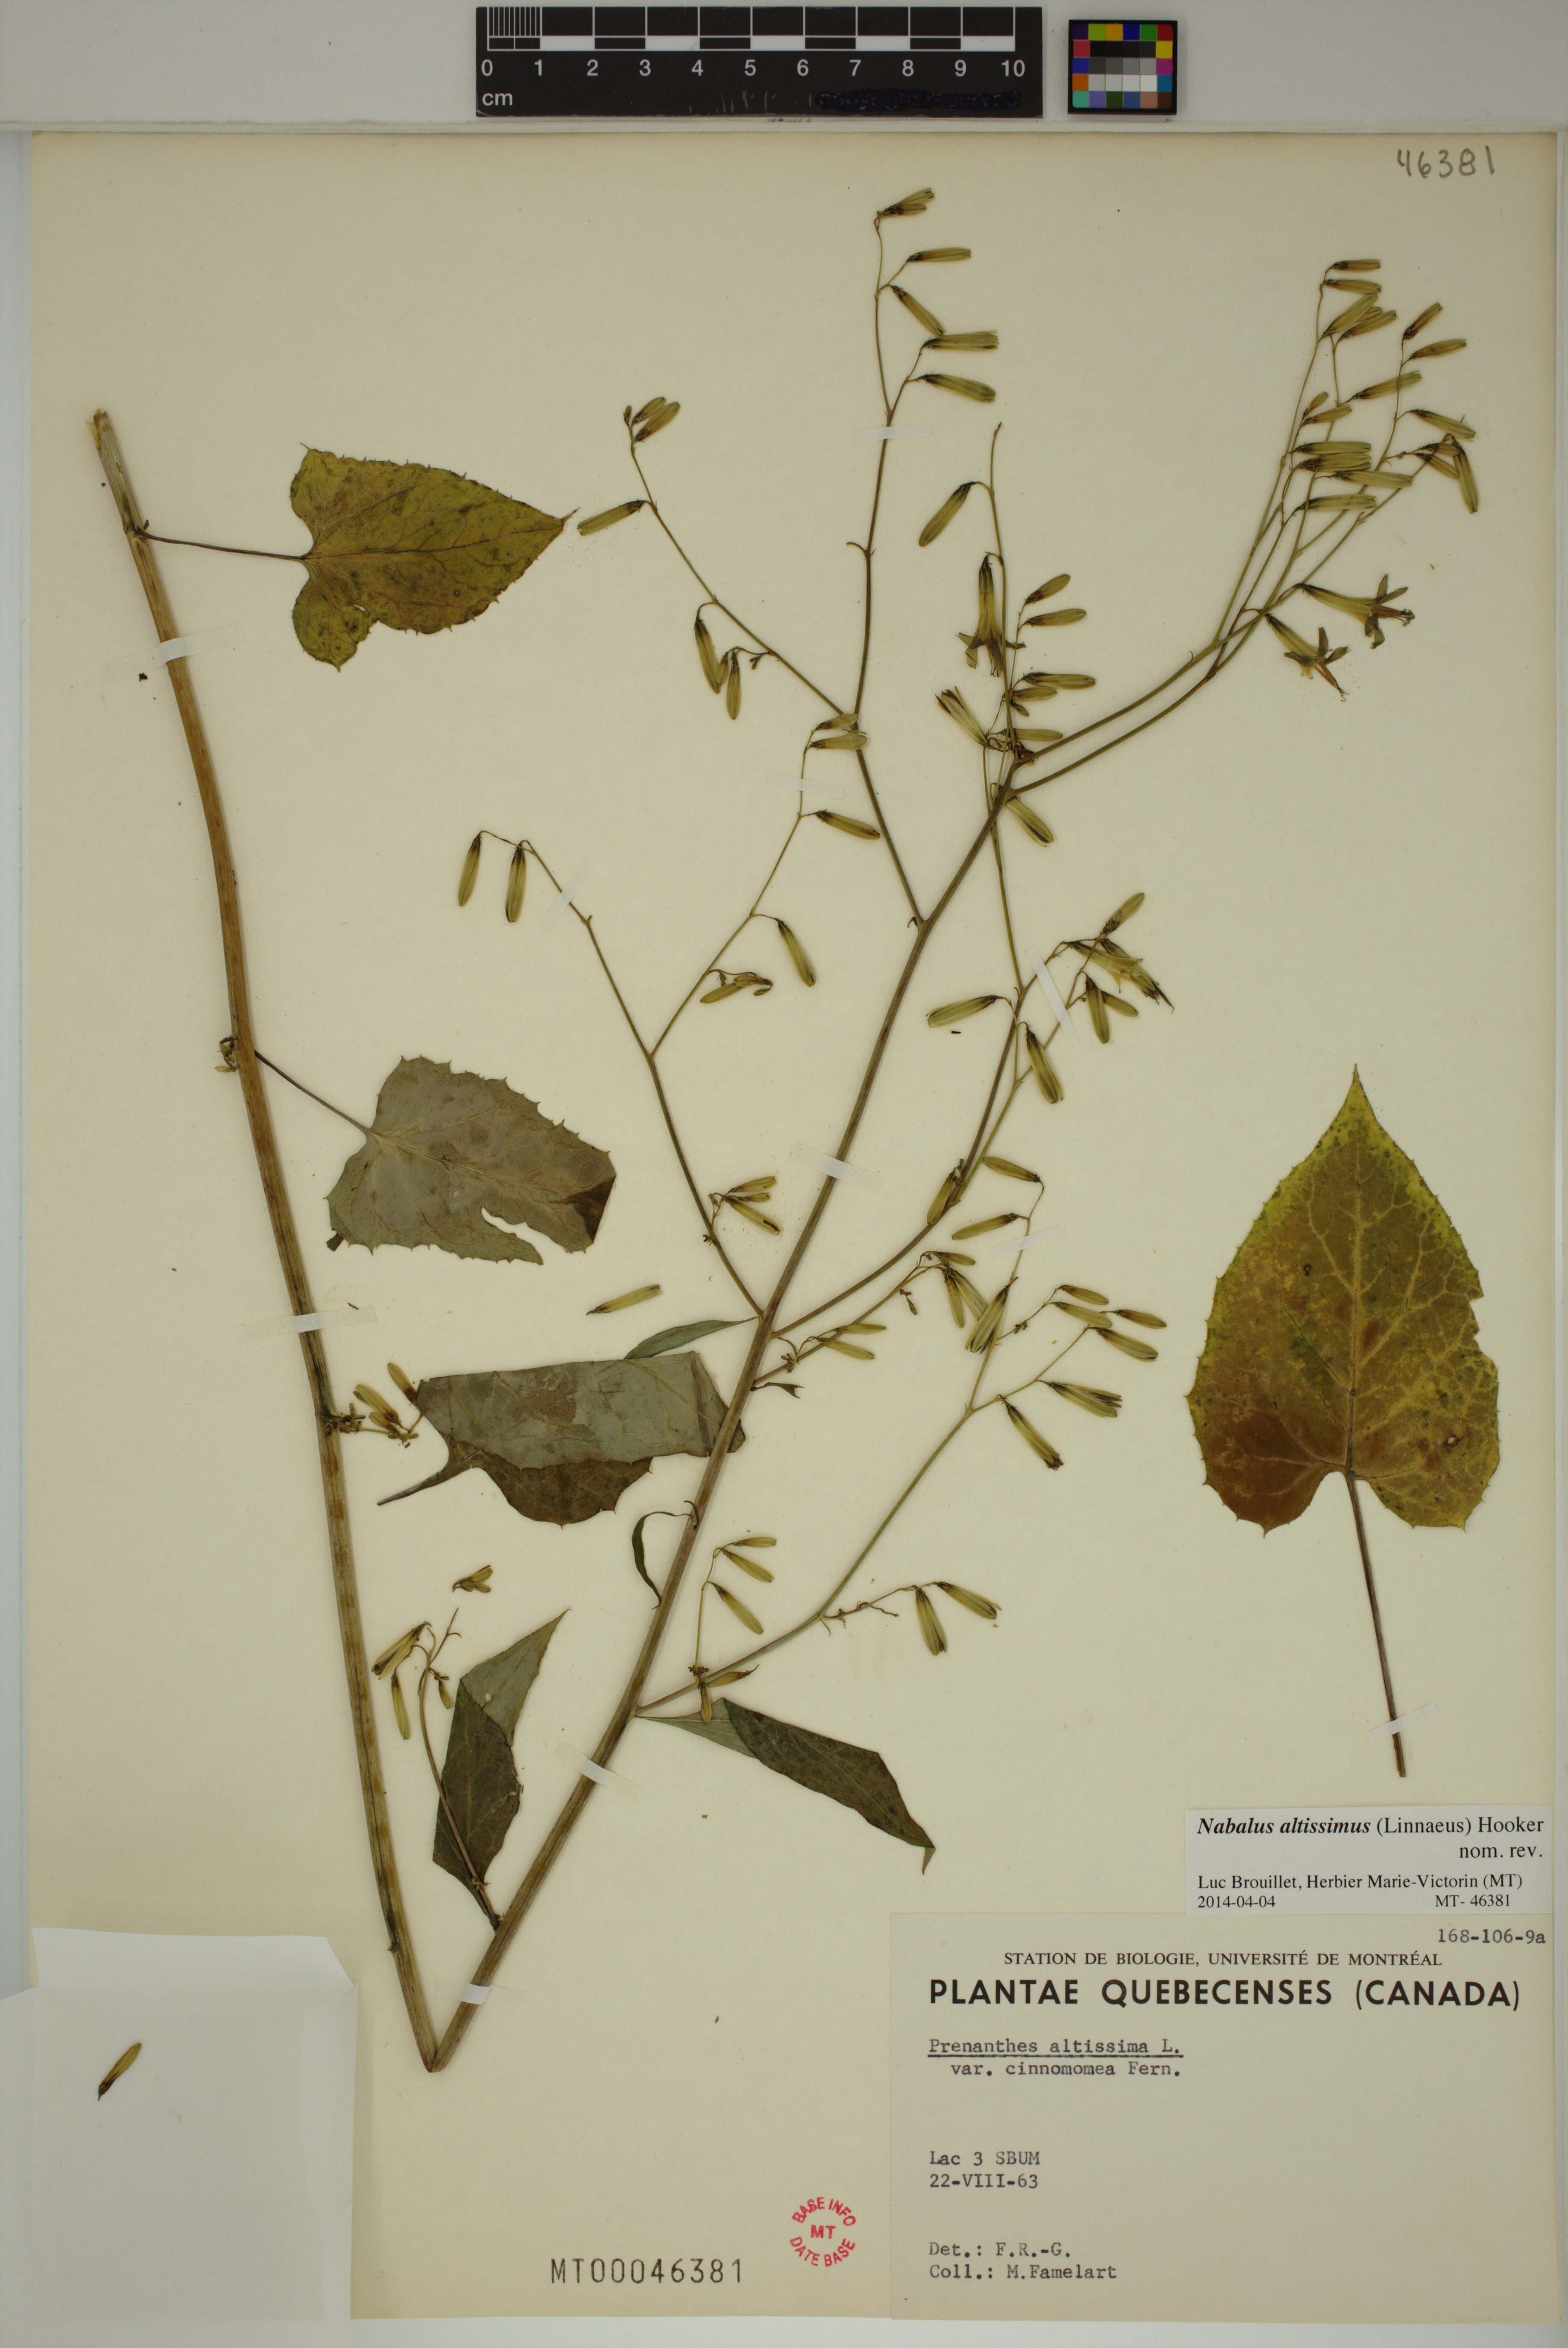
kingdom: Plantae
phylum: Tracheophyta
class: Magnoliopsida
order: Asterales
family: Asteraceae
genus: Nabalus
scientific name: Nabalus altissima
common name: Tall rattlesnakeroot
